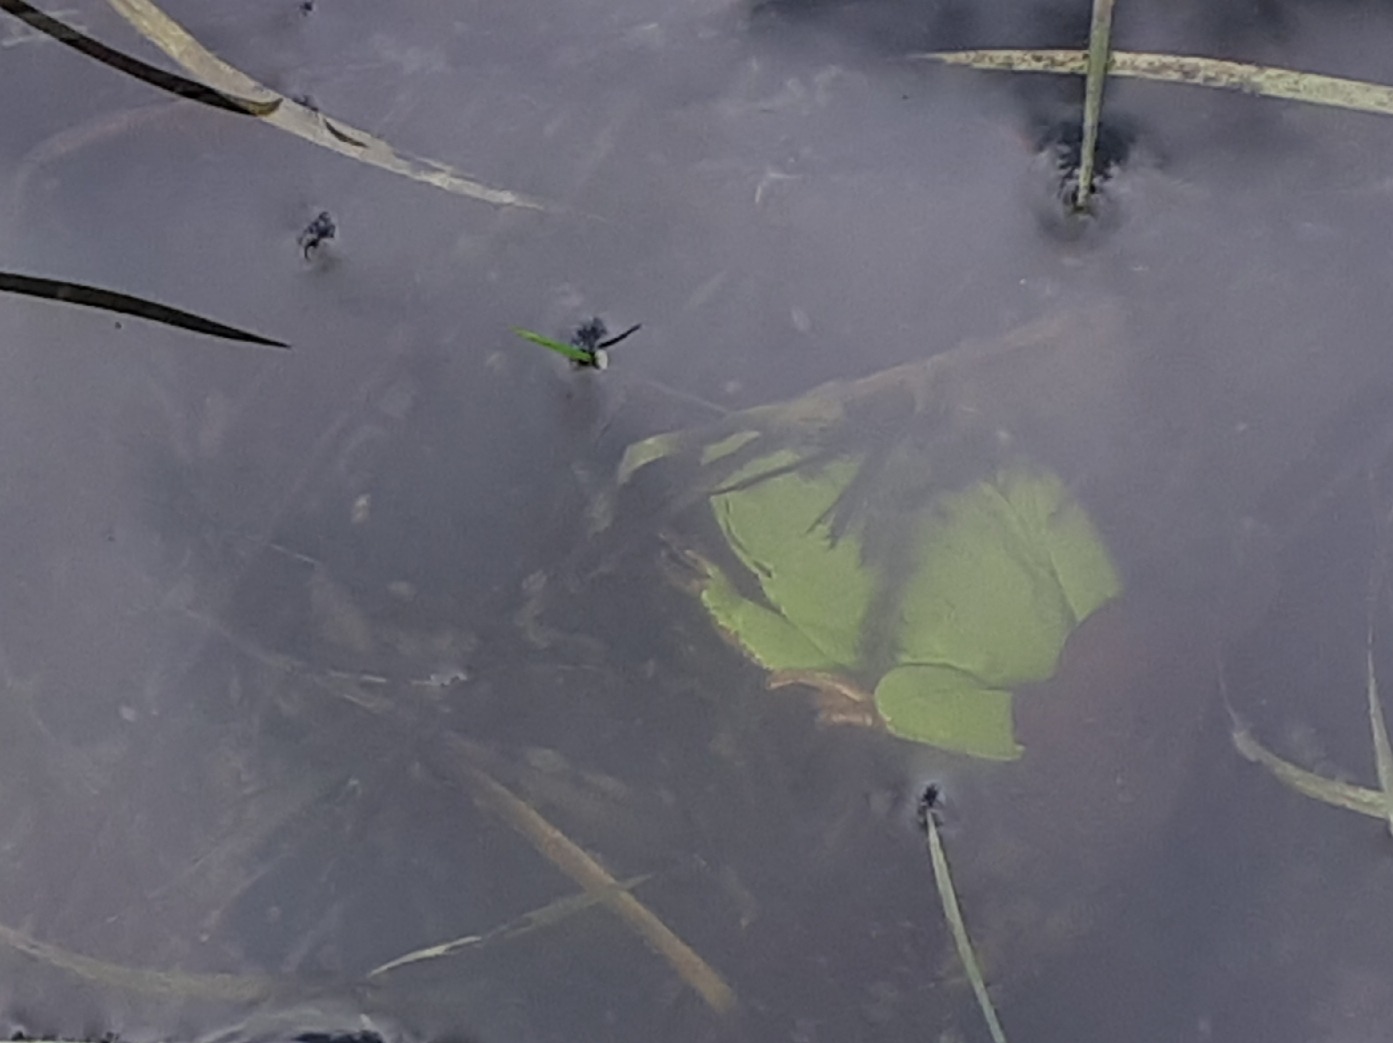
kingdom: Animalia
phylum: Chordata
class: Amphibia
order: Anura
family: Hylidae
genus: Hyla
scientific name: Hyla arborea
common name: Løvfrø
